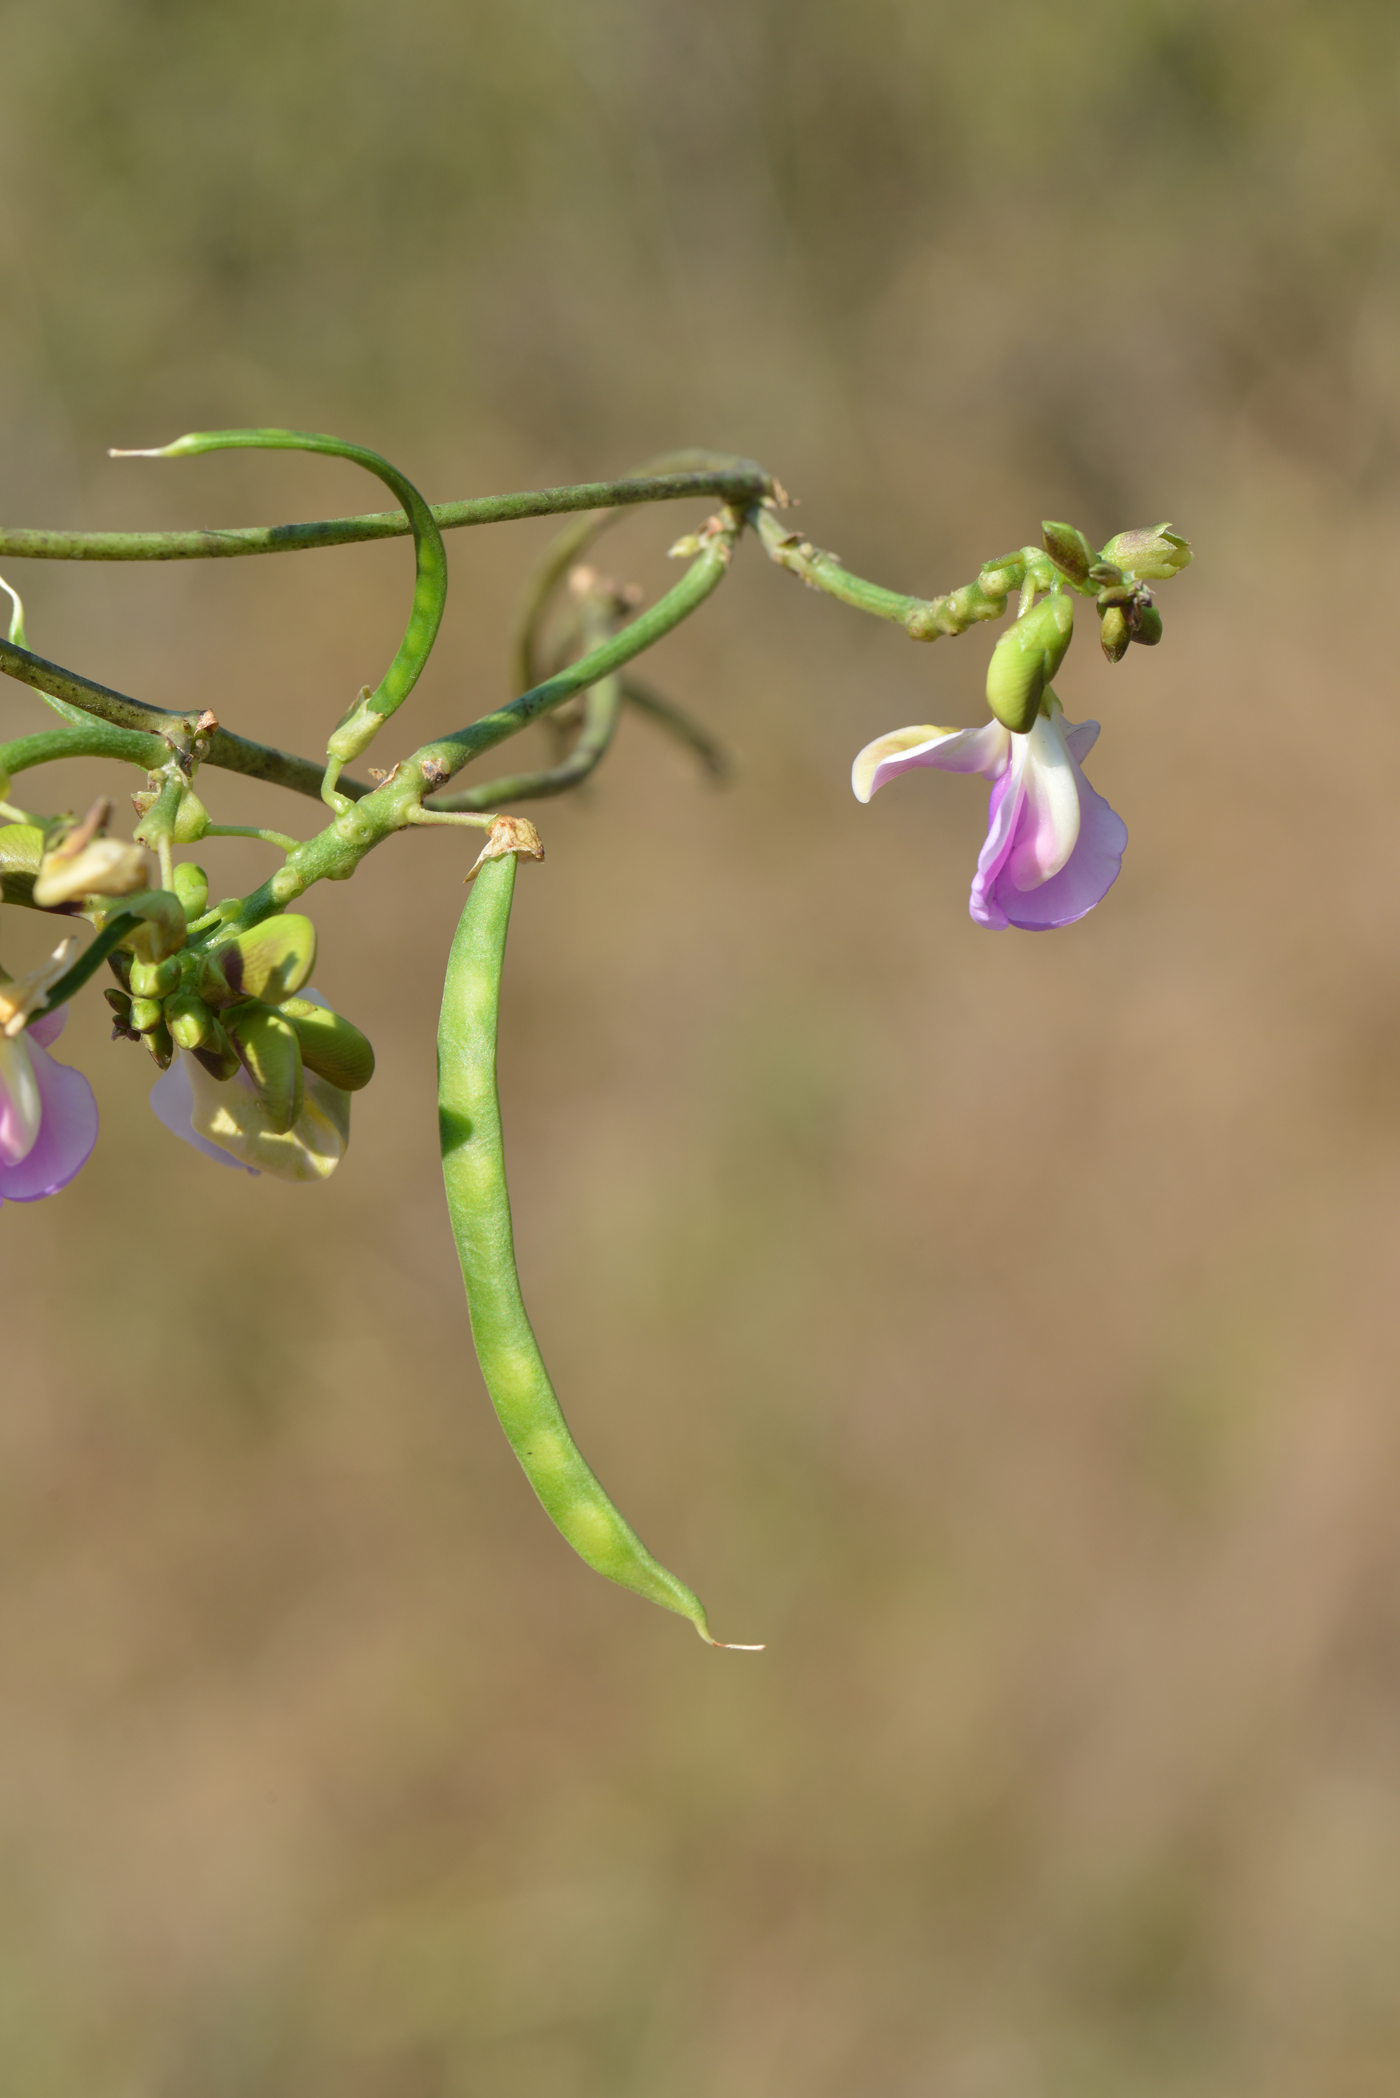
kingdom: Plantae
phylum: Tracheophyta
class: Magnoliopsida
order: Fabales
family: Fabaceae
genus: Dolichos
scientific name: Dolichos
